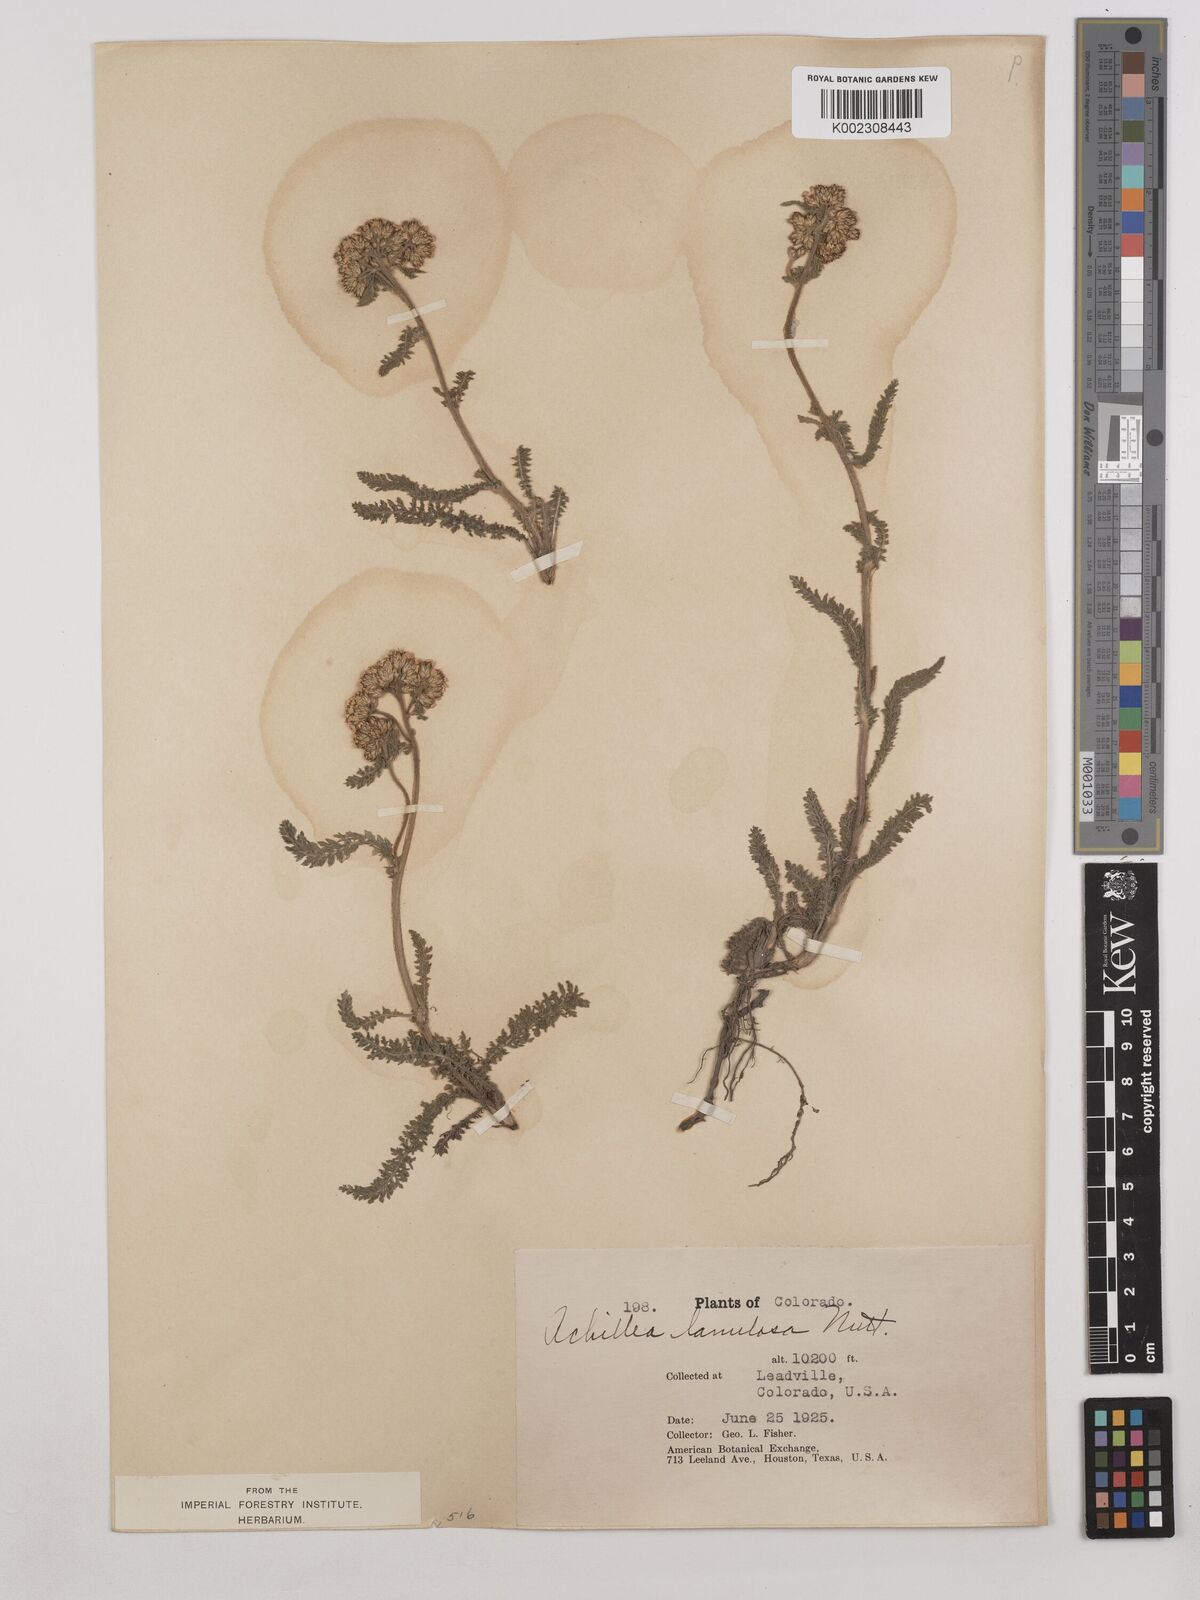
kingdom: Plantae
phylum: Tracheophyta
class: Magnoliopsida
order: Asterales
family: Asteraceae
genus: Achillea
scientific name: Achillea millefolium
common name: Yarrow
